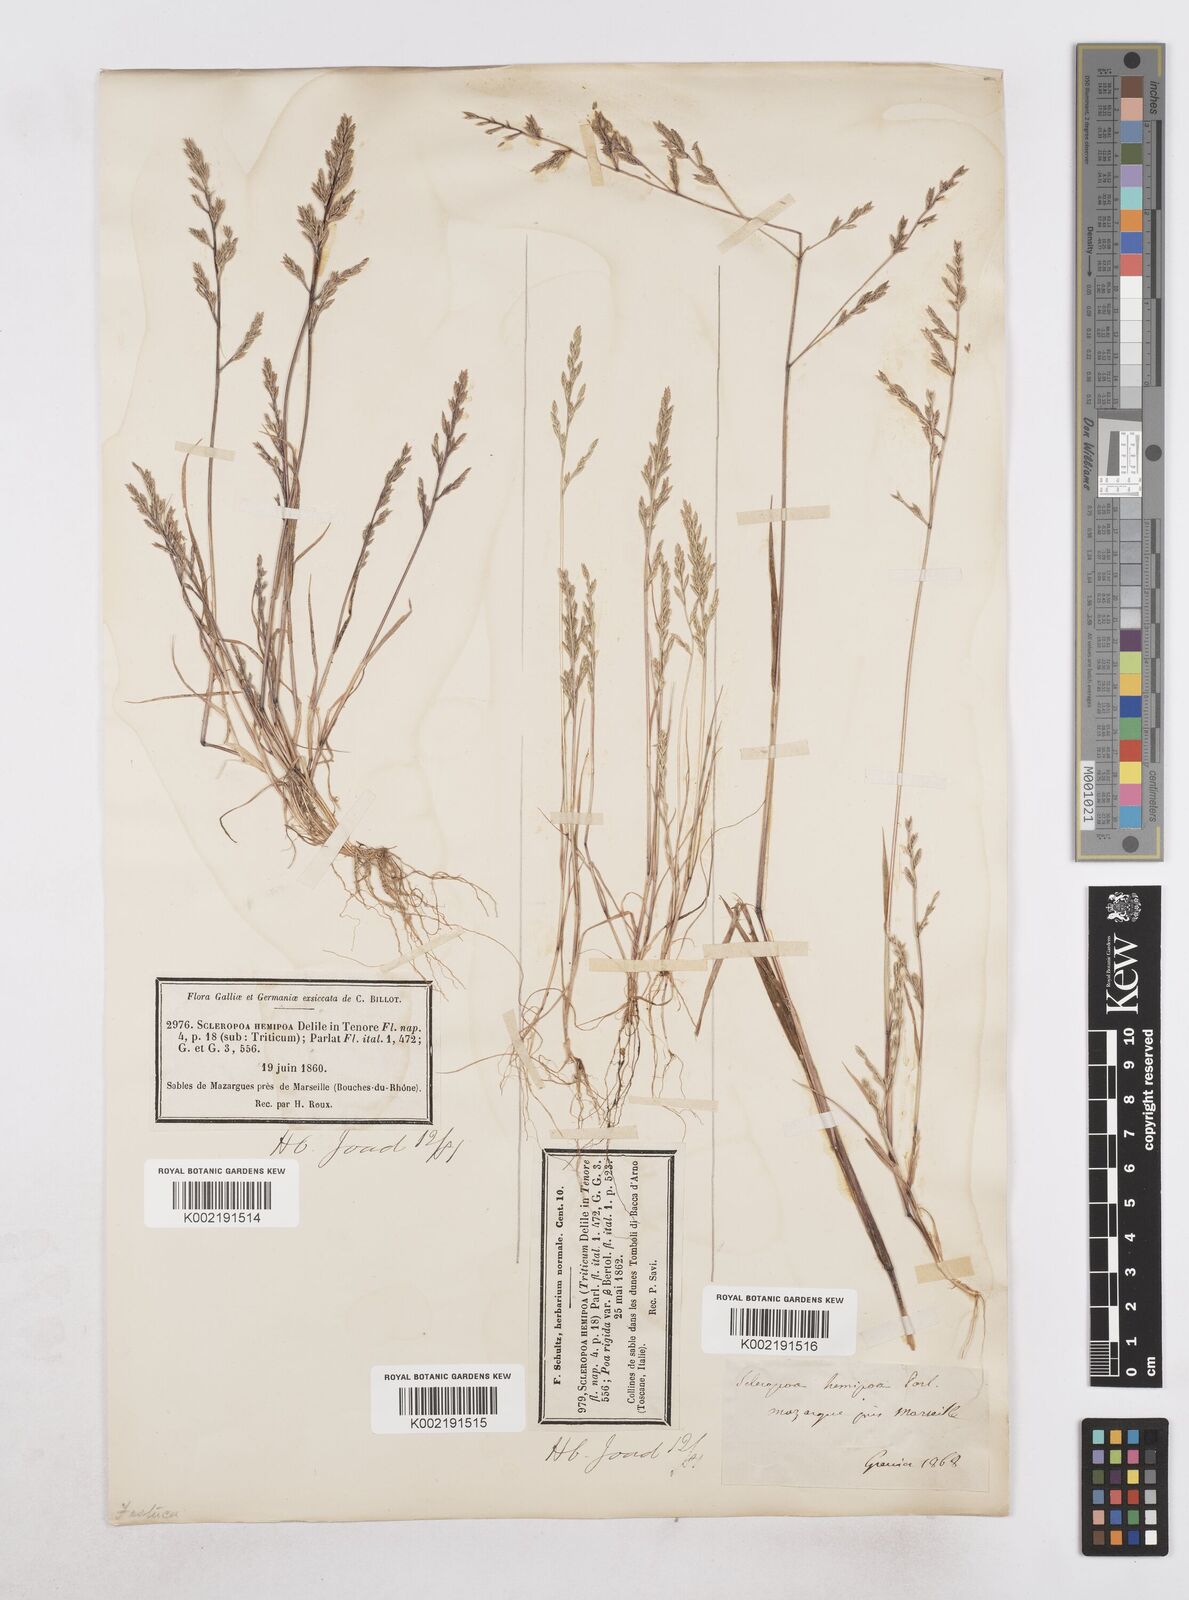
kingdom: Plantae
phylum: Tracheophyta
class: Liliopsida
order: Poales
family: Poaceae
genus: Catapodium
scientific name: Catapodium hemipoa
